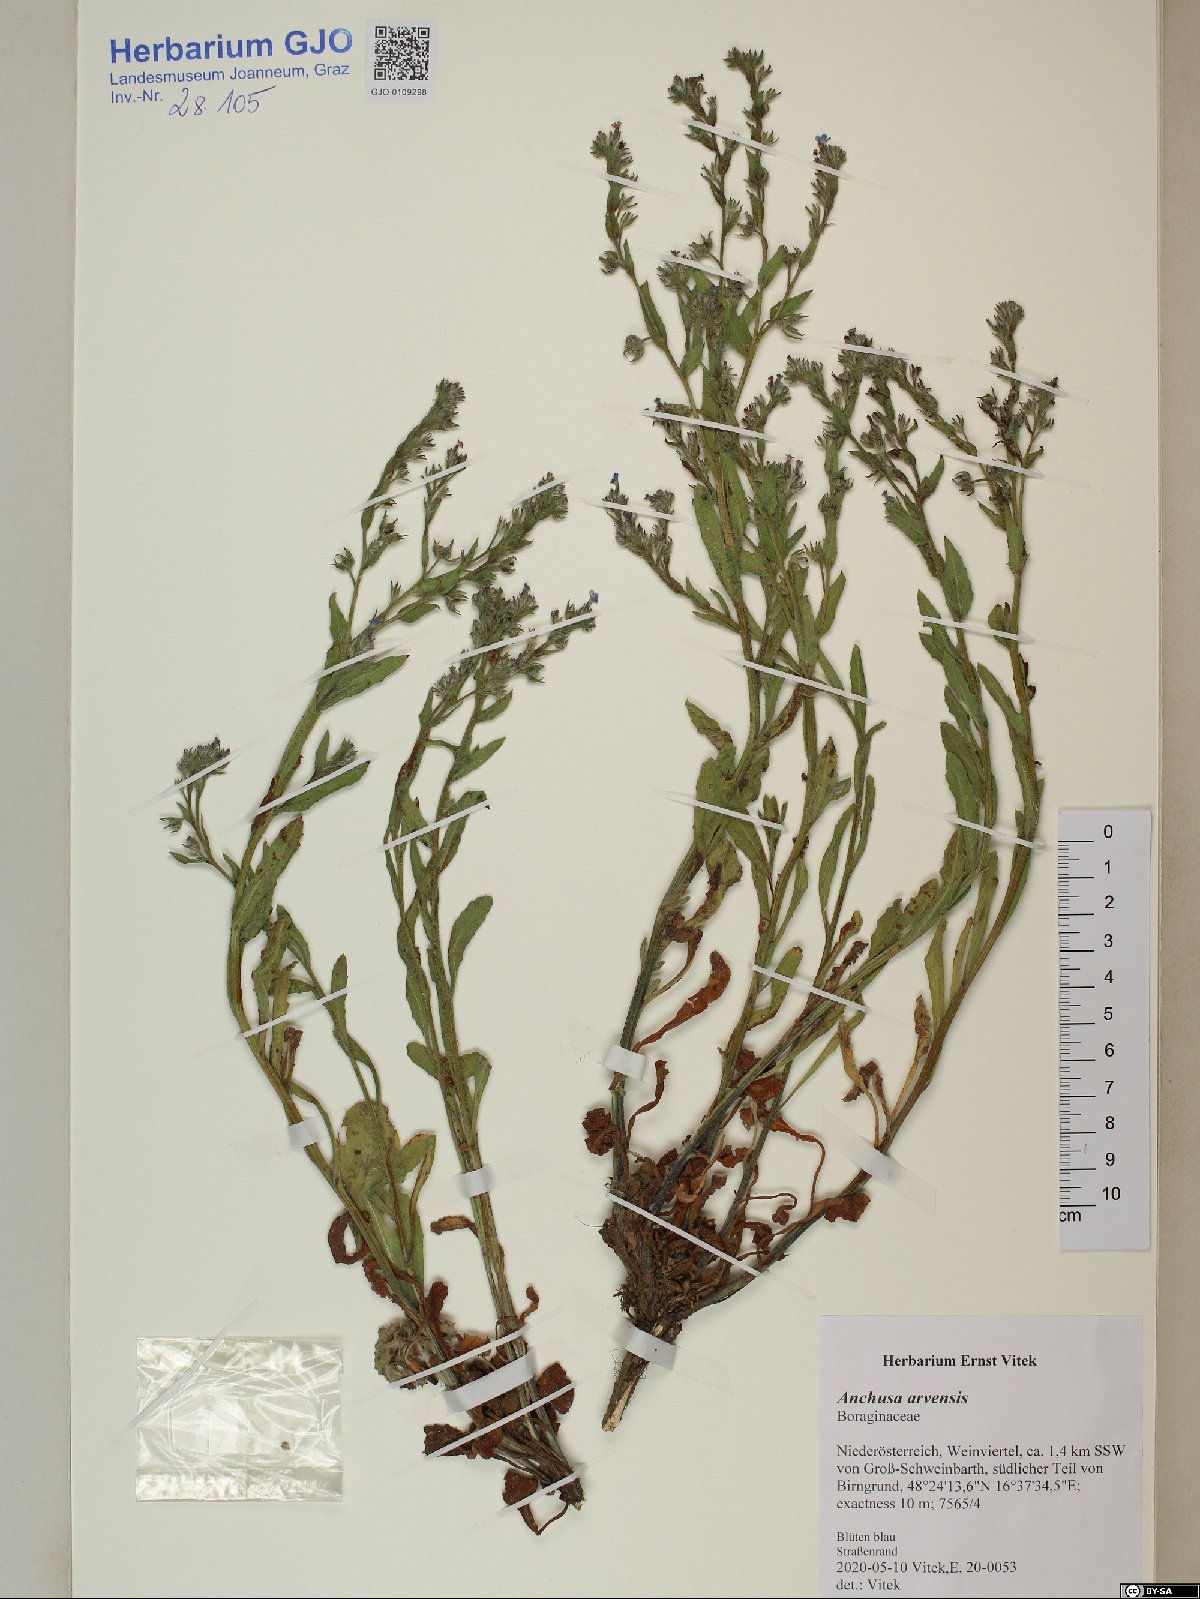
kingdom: Plantae
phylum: Tracheophyta
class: Magnoliopsida
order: Boraginales
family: Boraginaceae
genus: Lycopsis
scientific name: Lycopsis arvensis
